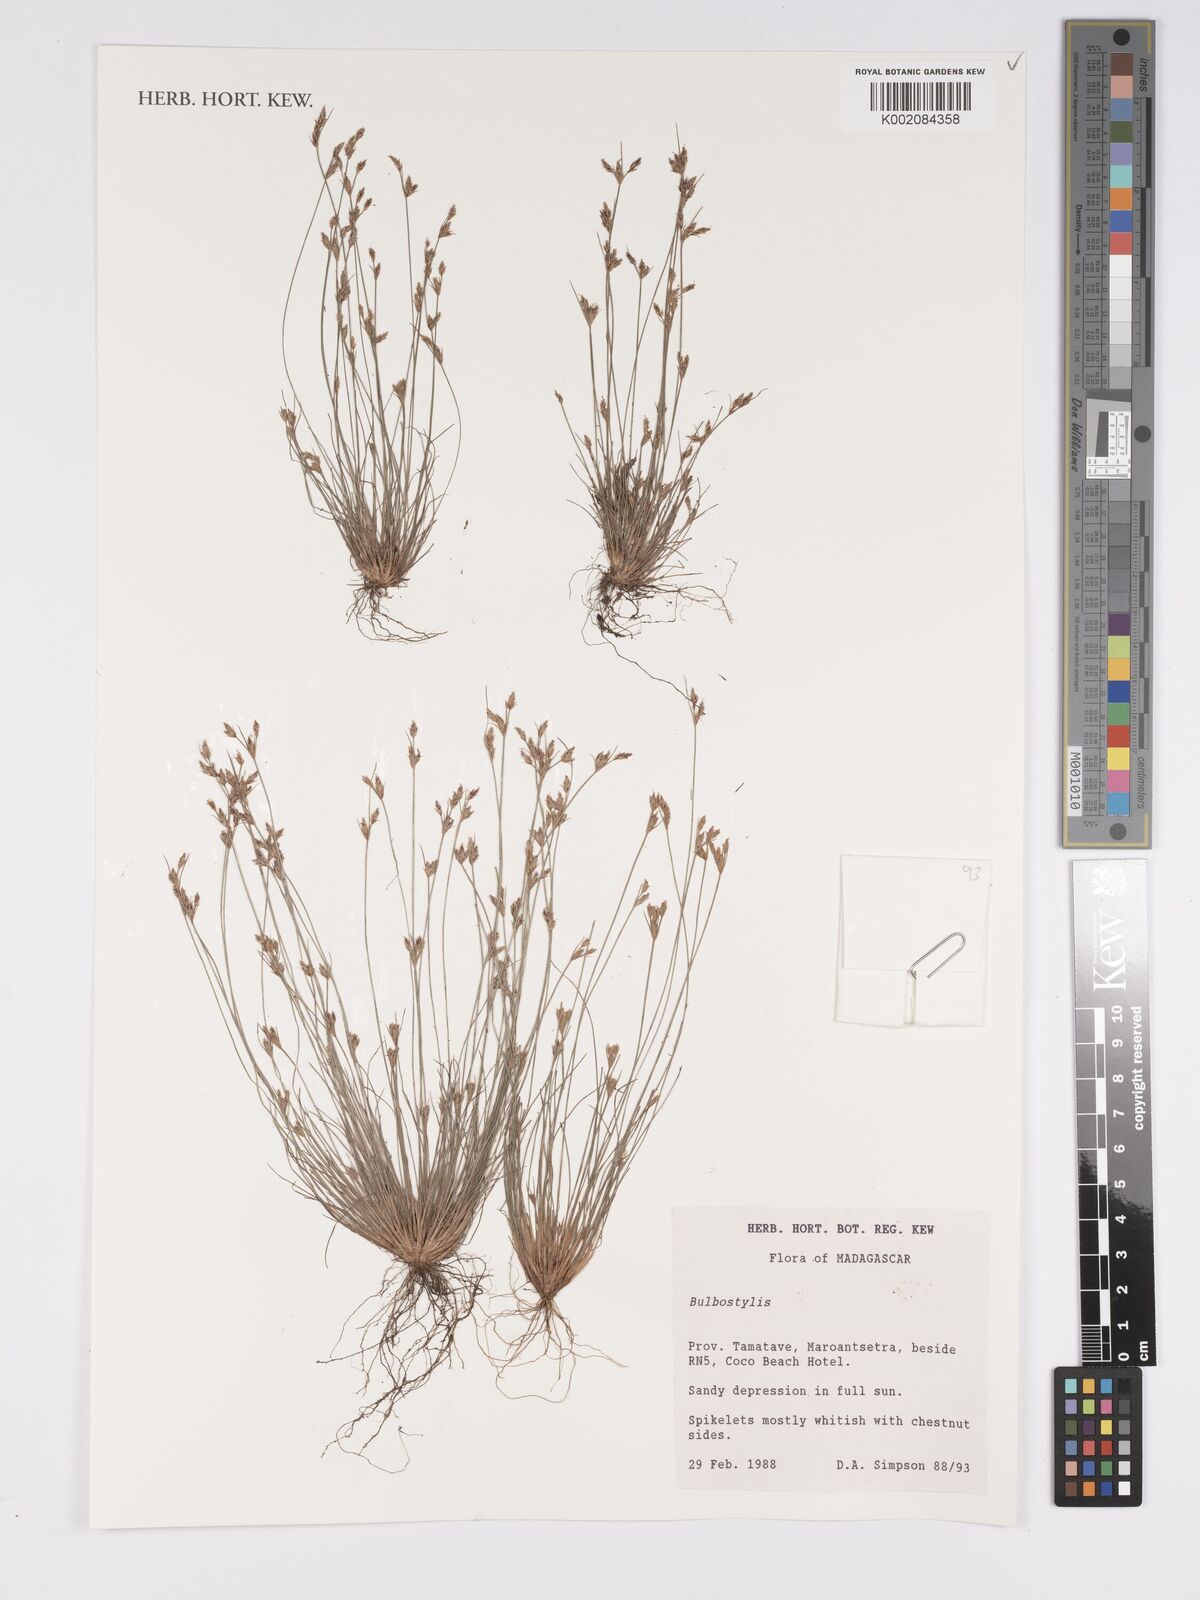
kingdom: Plantae
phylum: Tracheophyta
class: Liliopsida
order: Poales
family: Cyperaceae
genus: Bulbostylis
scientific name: Bulbostylis
